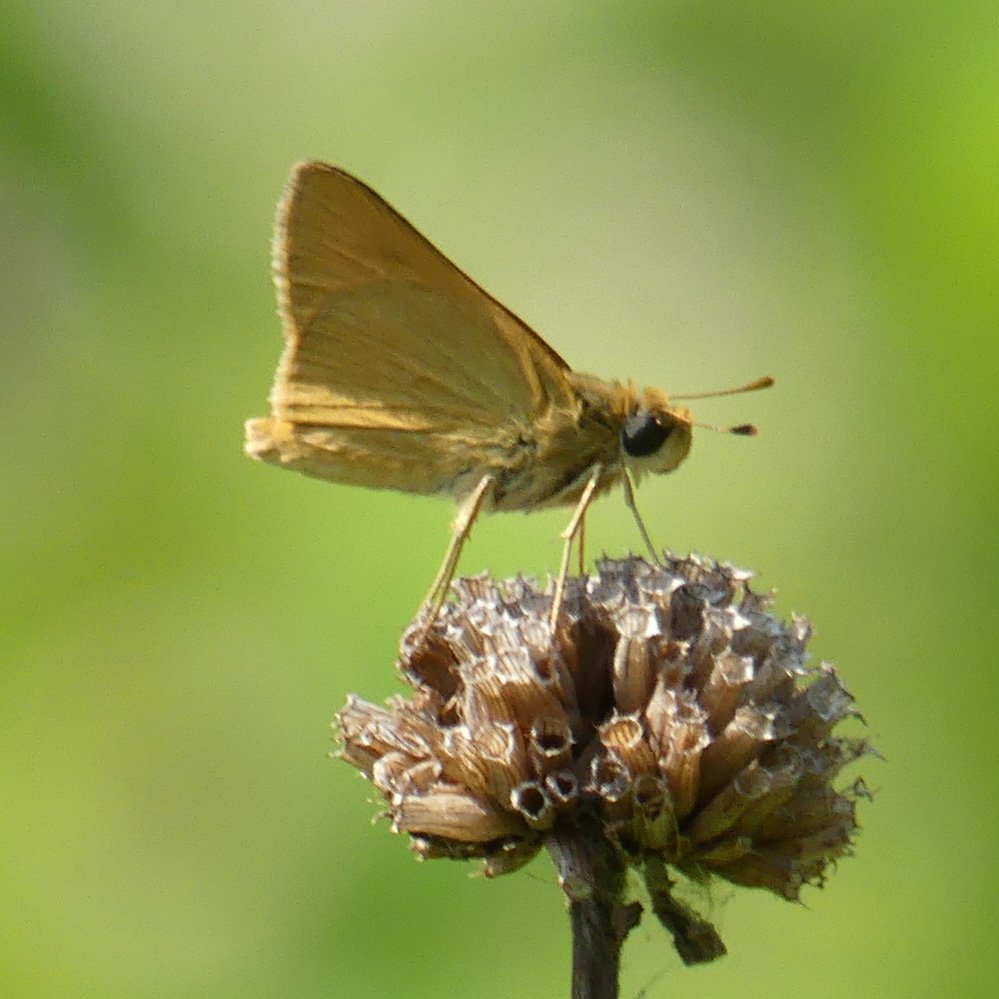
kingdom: Animalia
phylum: Arthropoda
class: Insecta
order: Lepidoptera
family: Hesperiidae
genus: Atrytone
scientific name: Atrytone delaware
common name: Delaware Skipper
